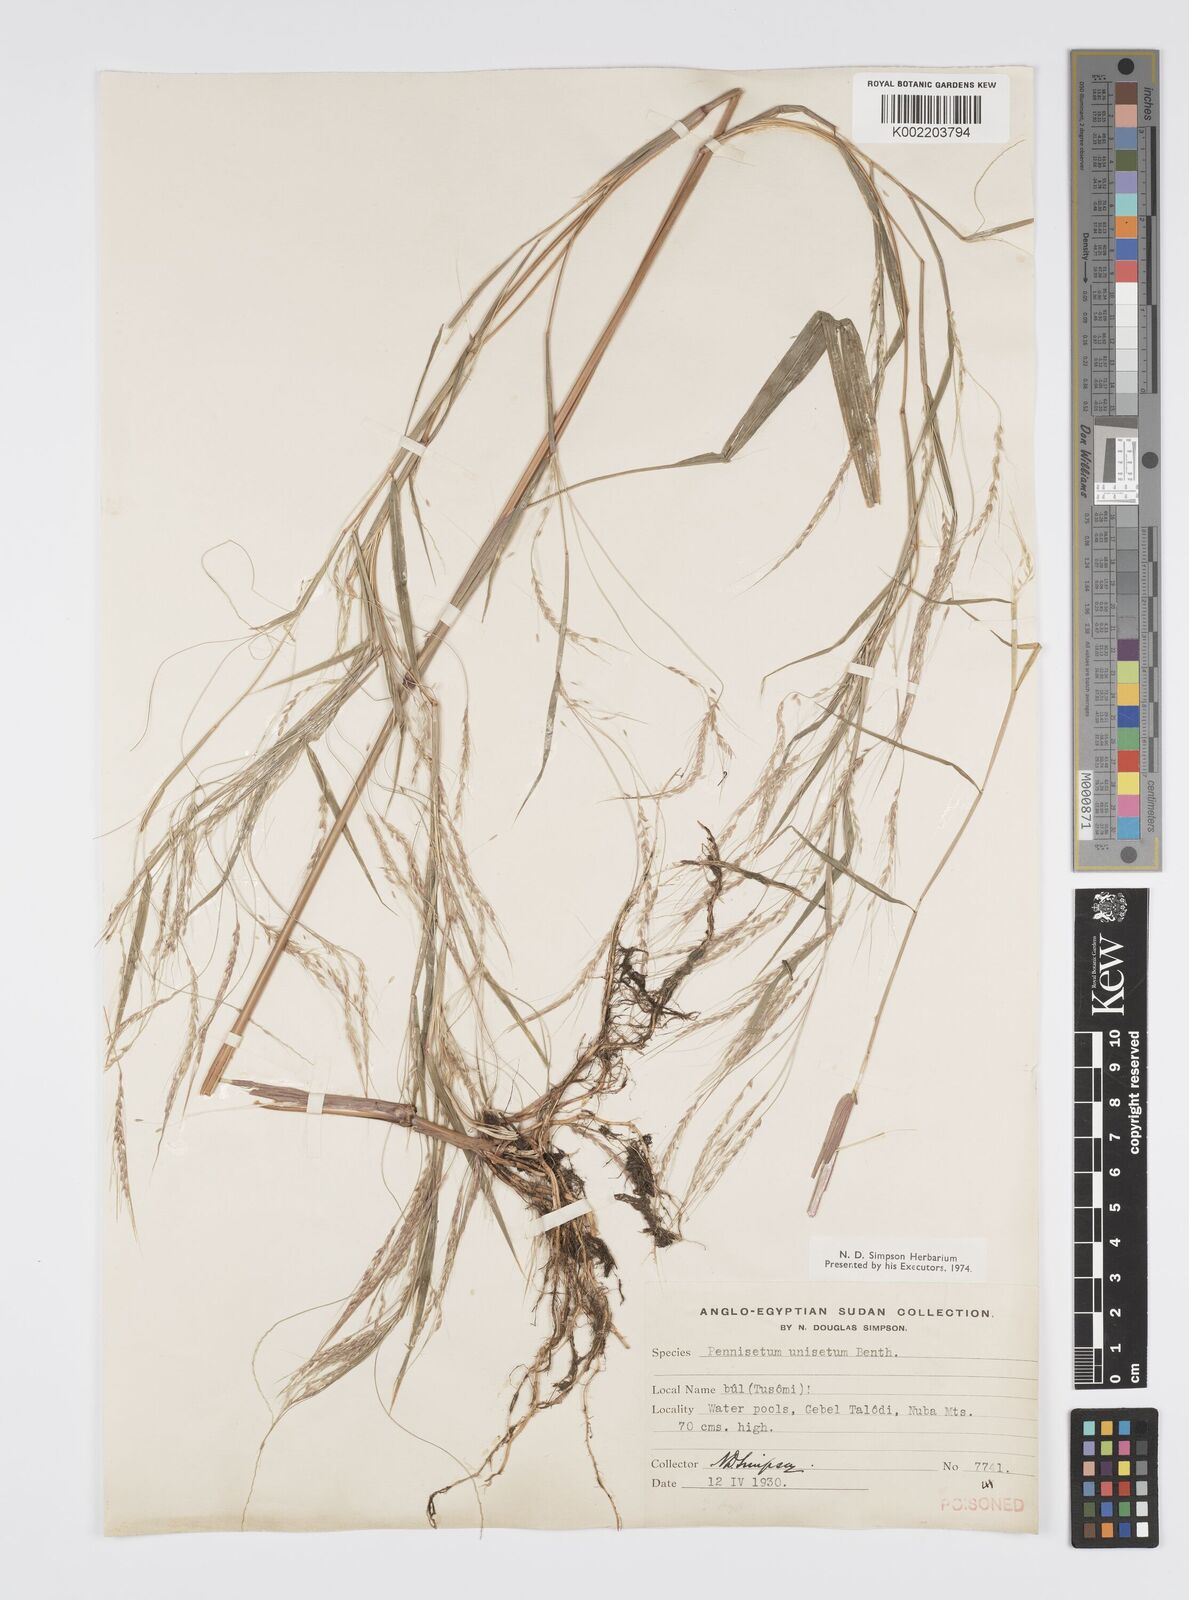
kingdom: Plantae
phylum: Tracheophyta
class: Liliopsida
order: Poales
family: Poaceae
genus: Cenchrus
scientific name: Cenchrus unisetus
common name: Natal grass
